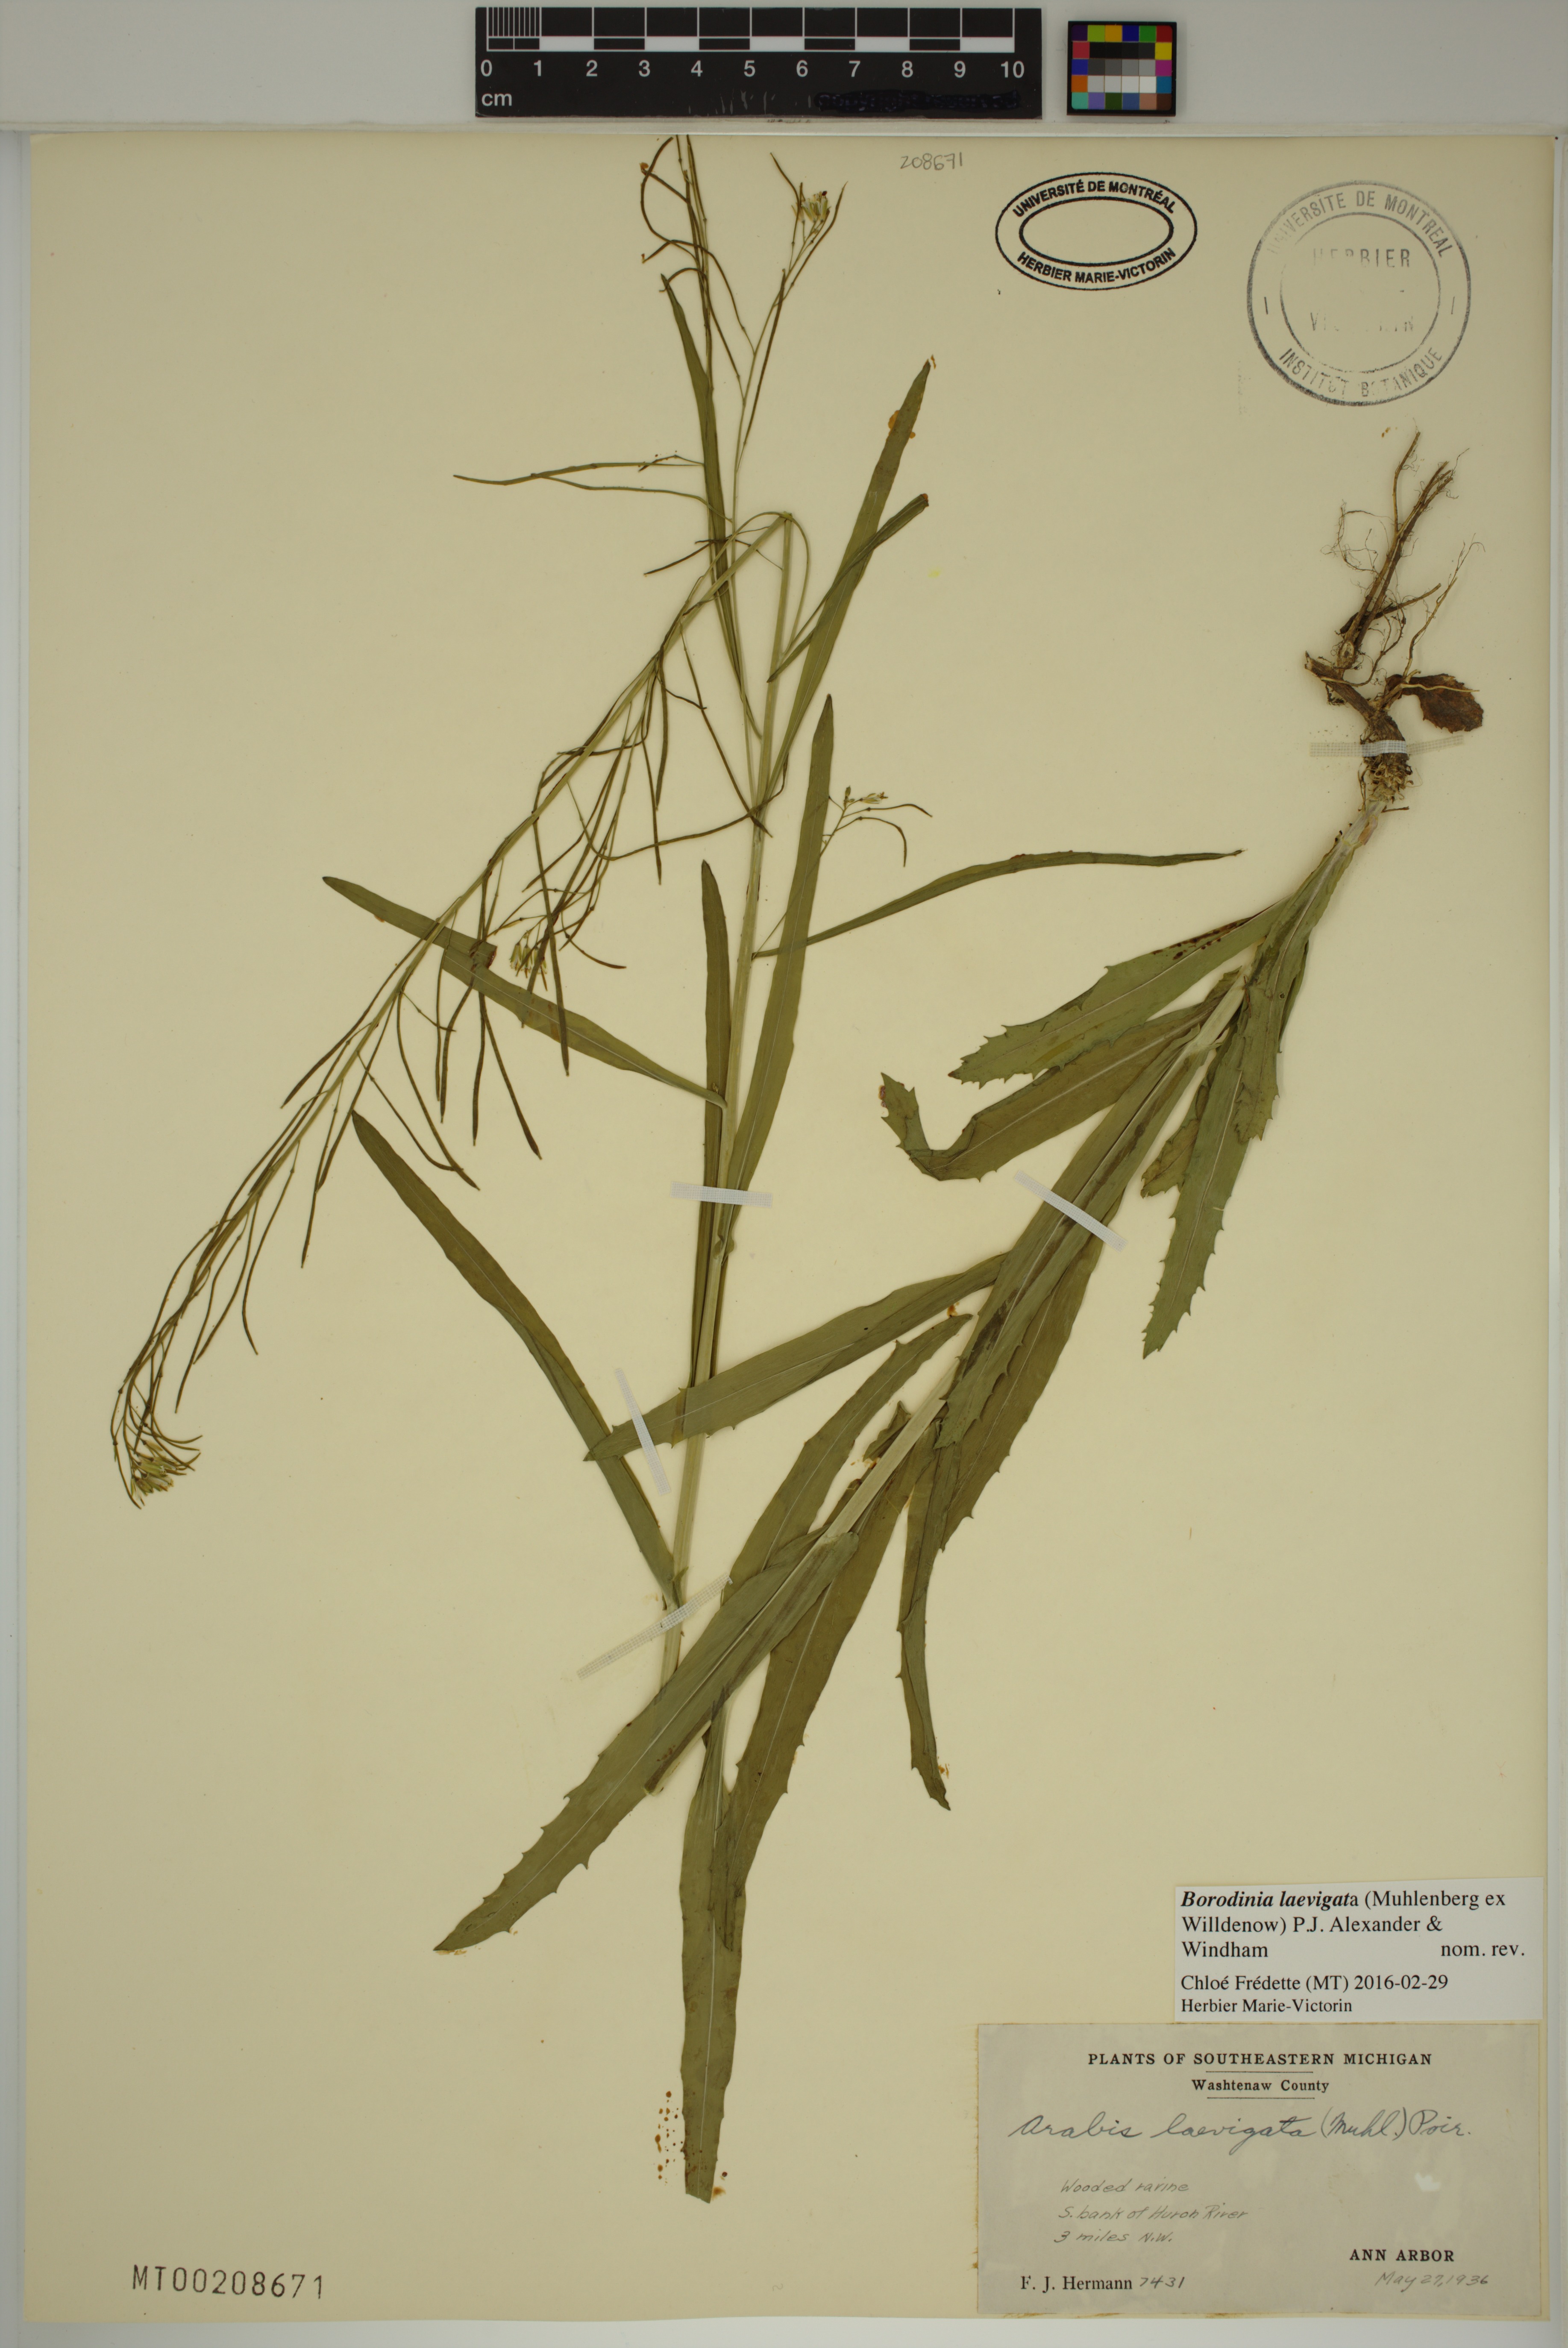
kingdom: Plantae
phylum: Tracheophyta
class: Magnoliopsida
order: Brassicales
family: Brassicaceae
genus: Borodinia
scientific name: Borodinia laevigata
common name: Smooth rockcress
